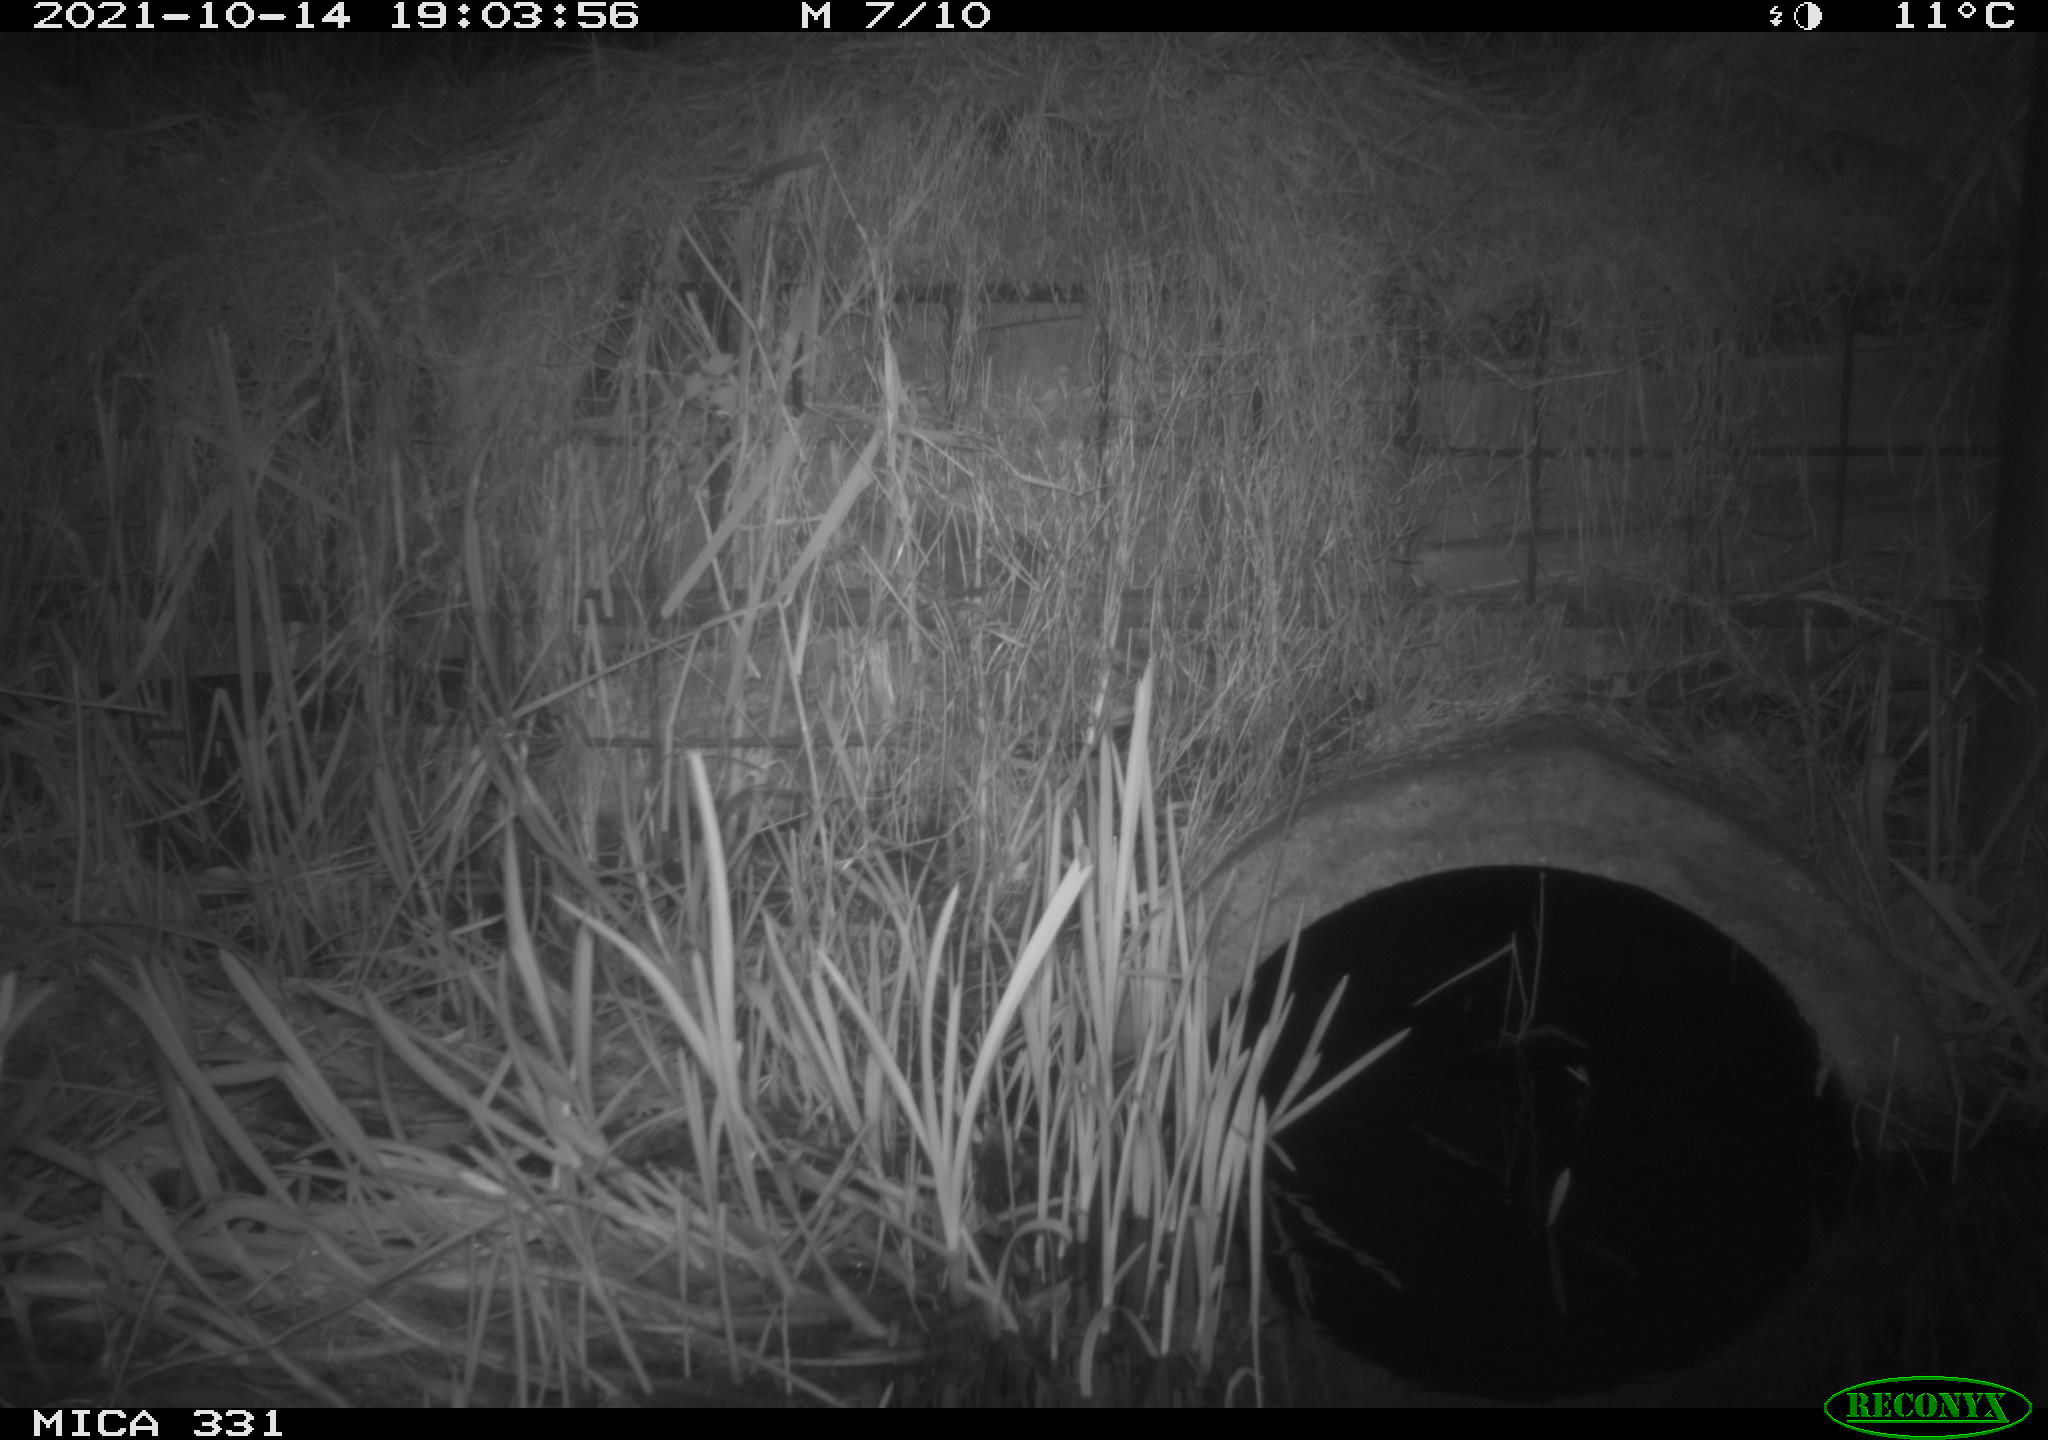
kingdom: Animalia
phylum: Chordata
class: Mammalia
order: Rodentia
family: Muridae
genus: Rattus
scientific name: Rattus norvegicus
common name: Brown rat
